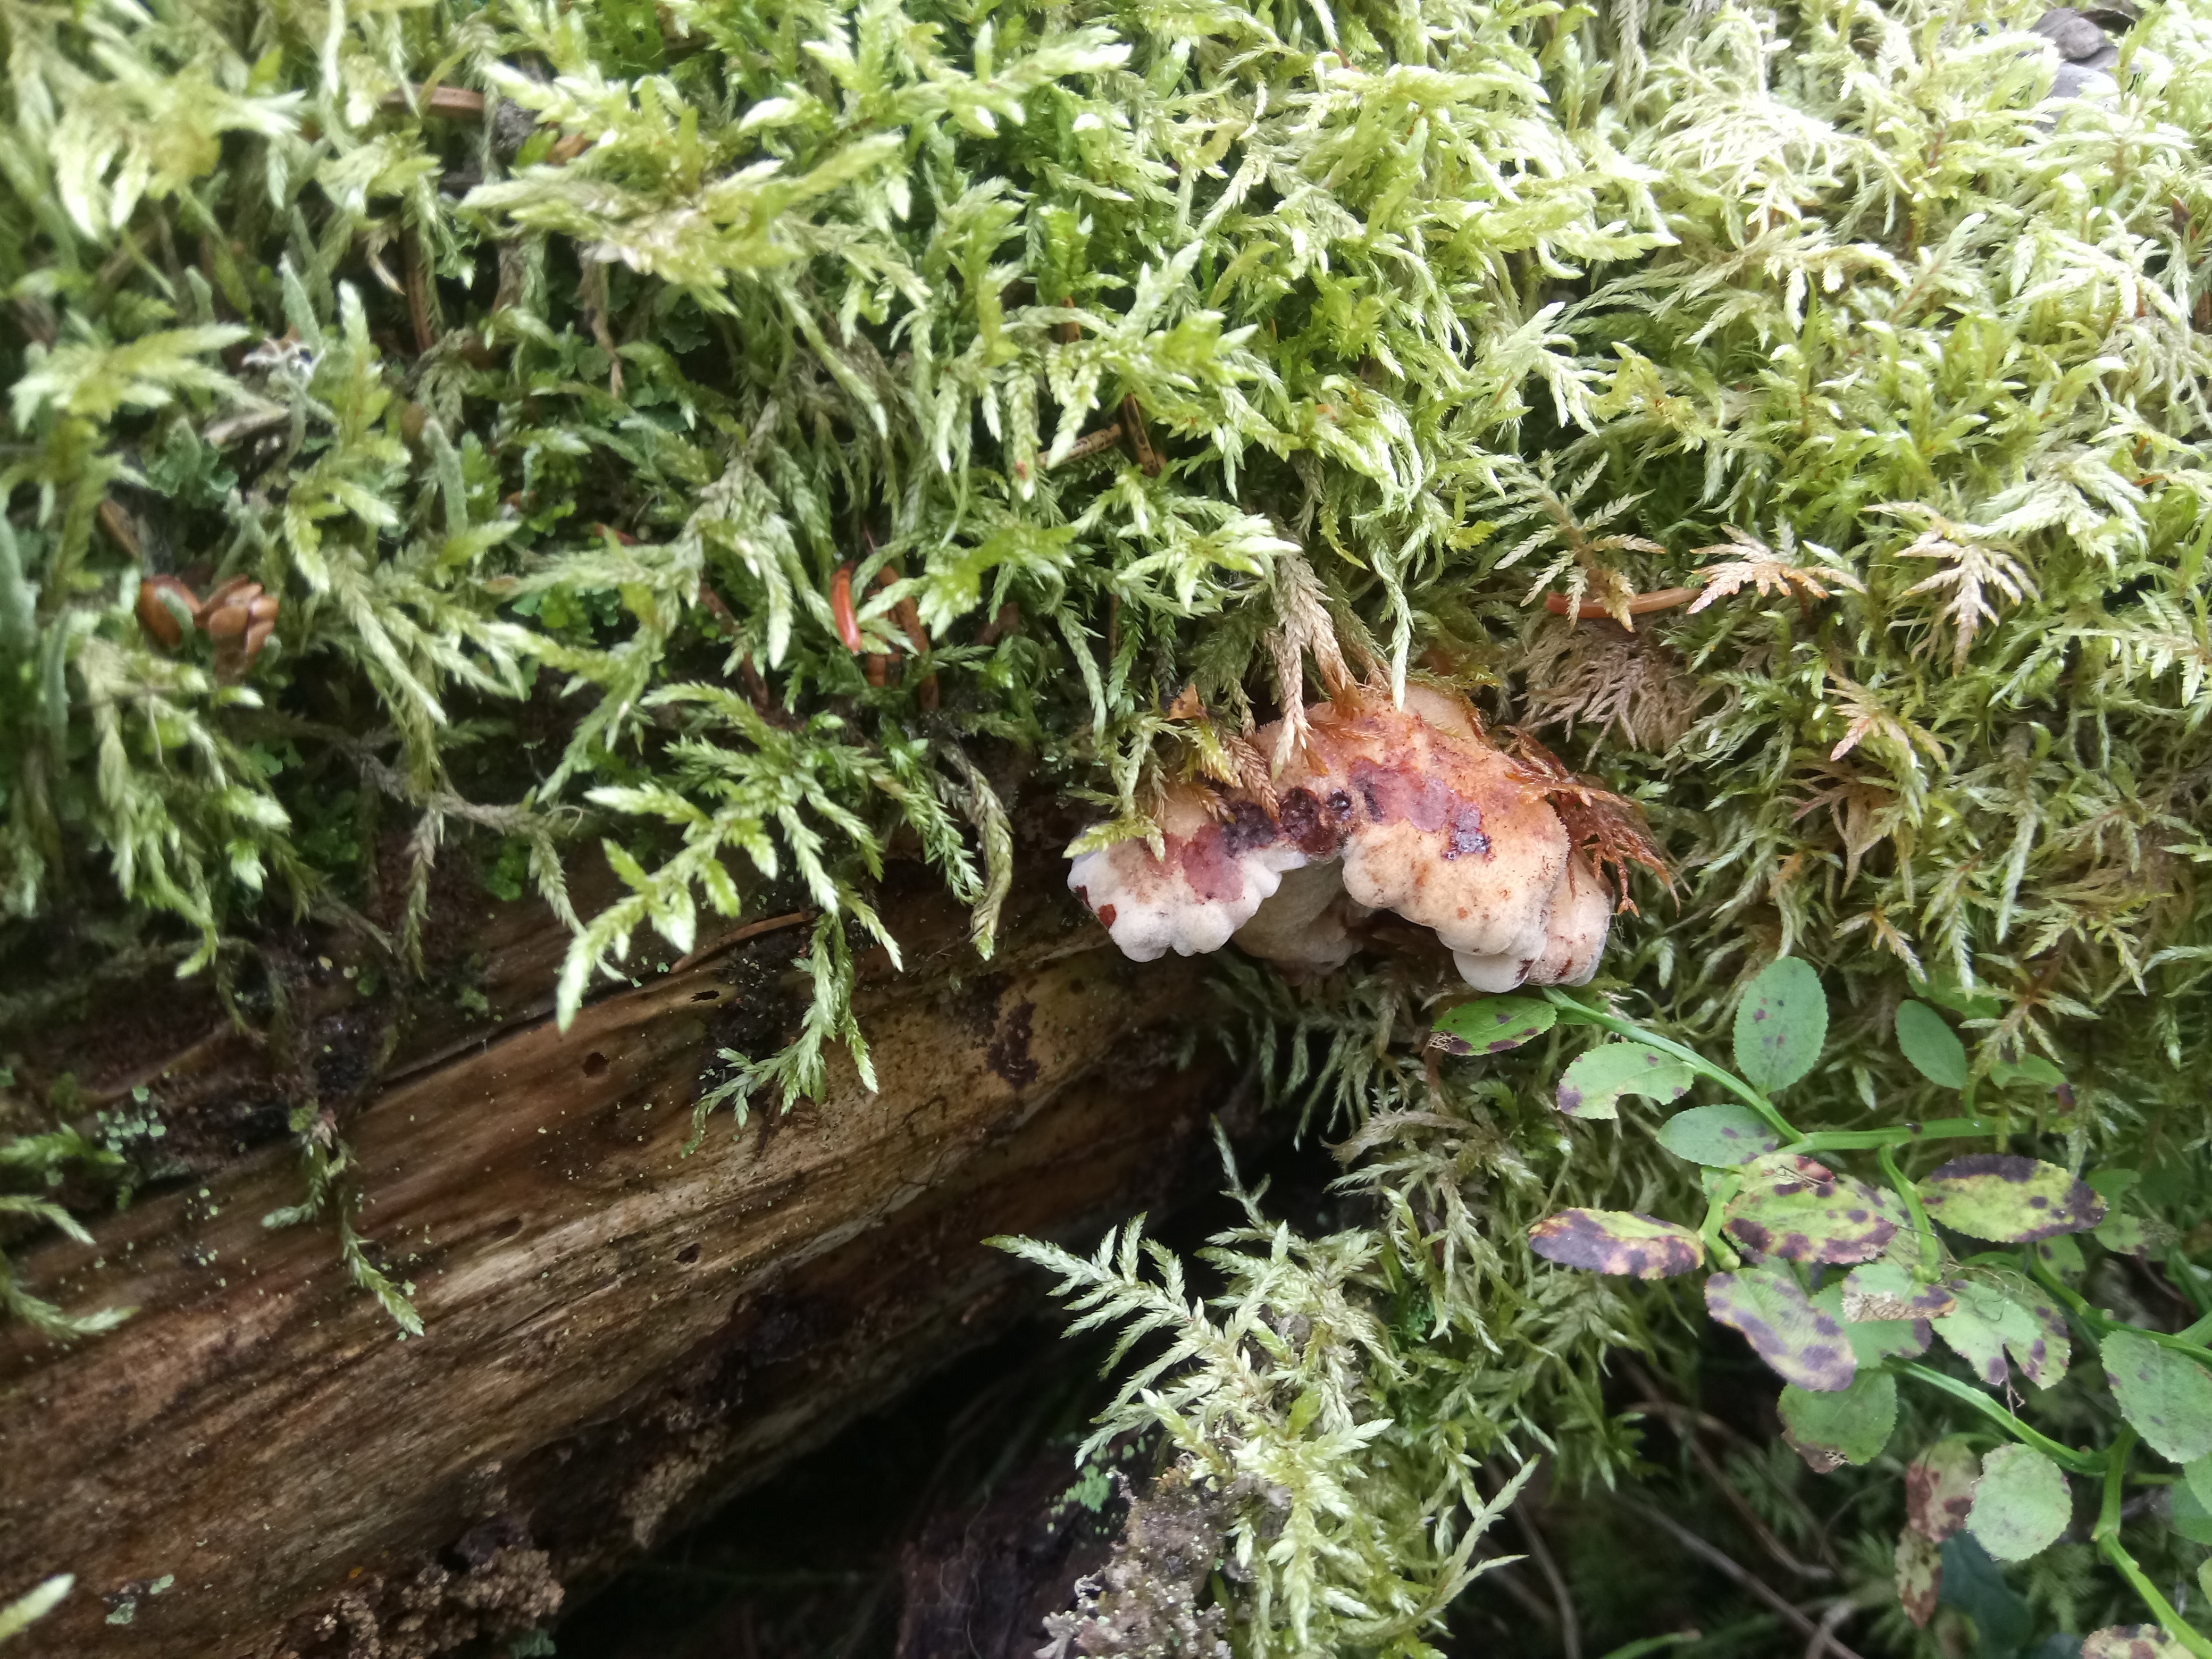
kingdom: Fungi
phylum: Basidiomycota
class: Agaricomycetes
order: Polyporales
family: Dacryobolaceae
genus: Amylocystis
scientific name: Amylocystis lapponica
